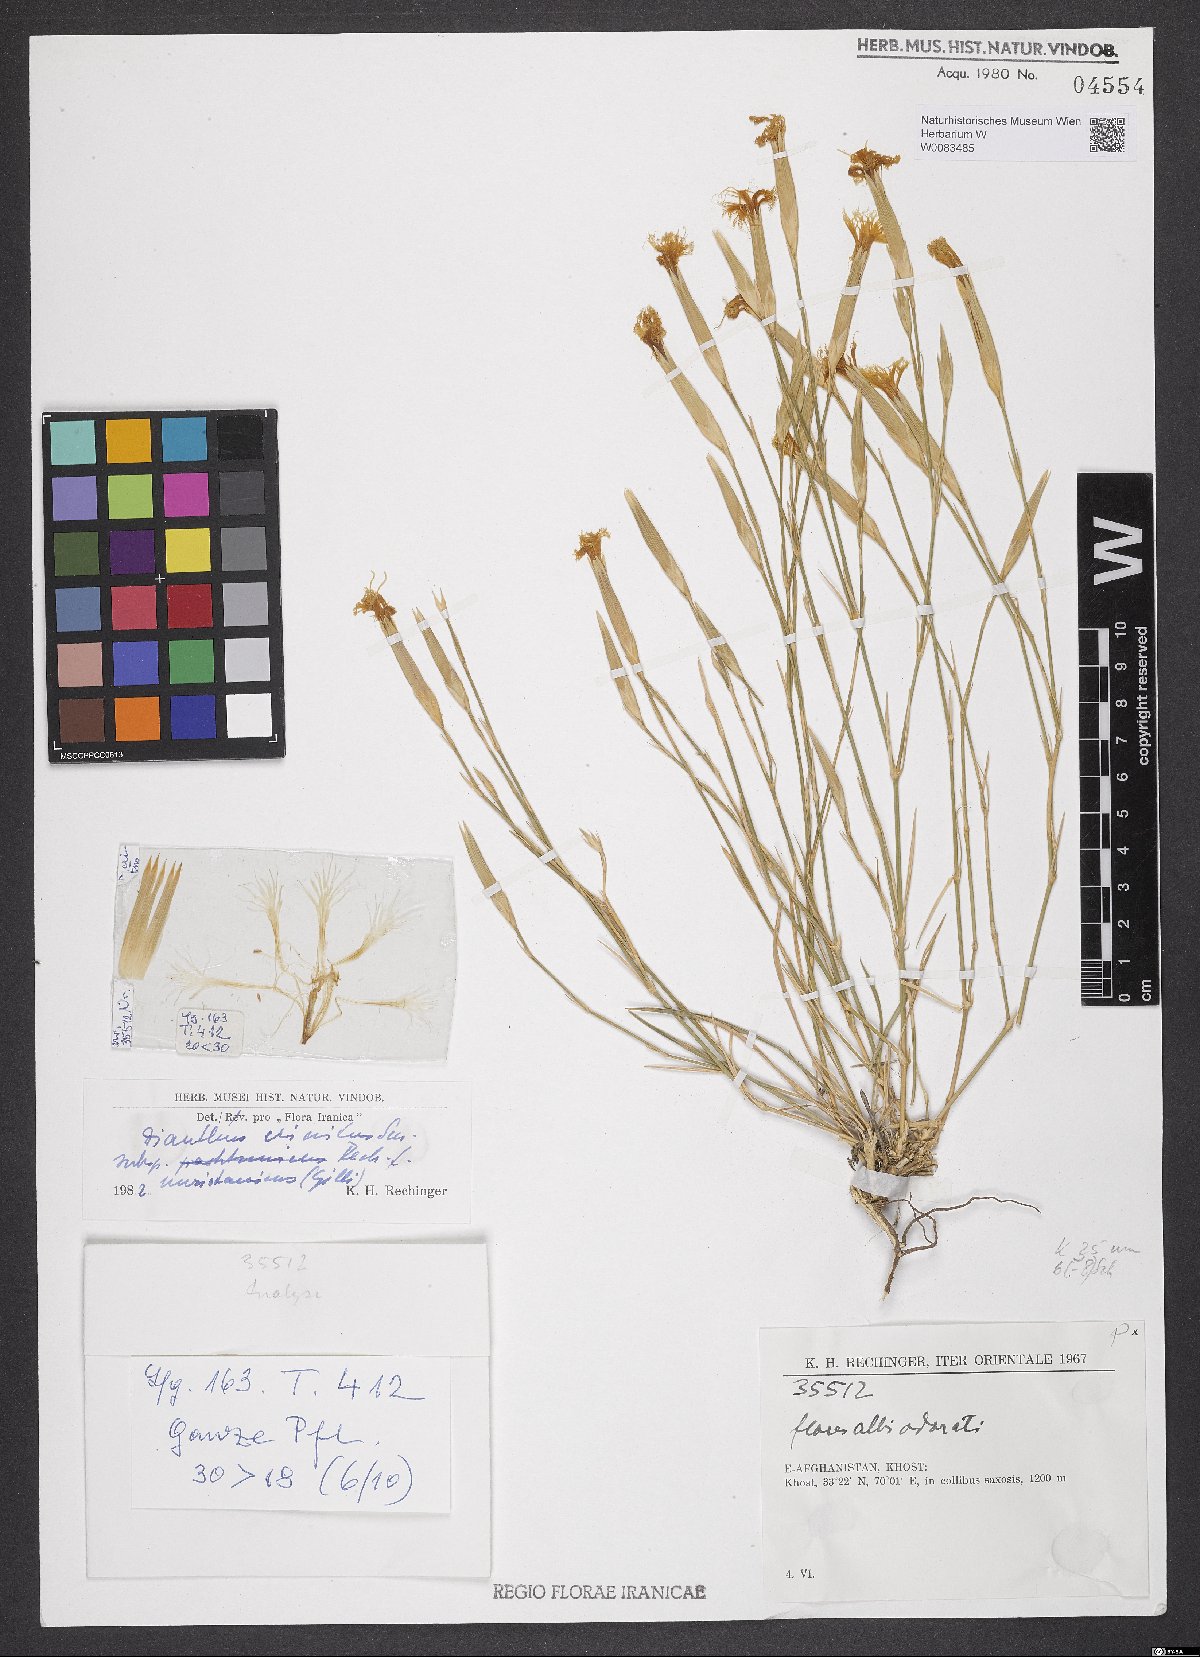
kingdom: Plantae
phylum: Tracheophyta
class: Magnoliopsida
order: Caryophyllales
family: Caryophyllaceae
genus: Dianthus
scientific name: Dianthus crinitus
